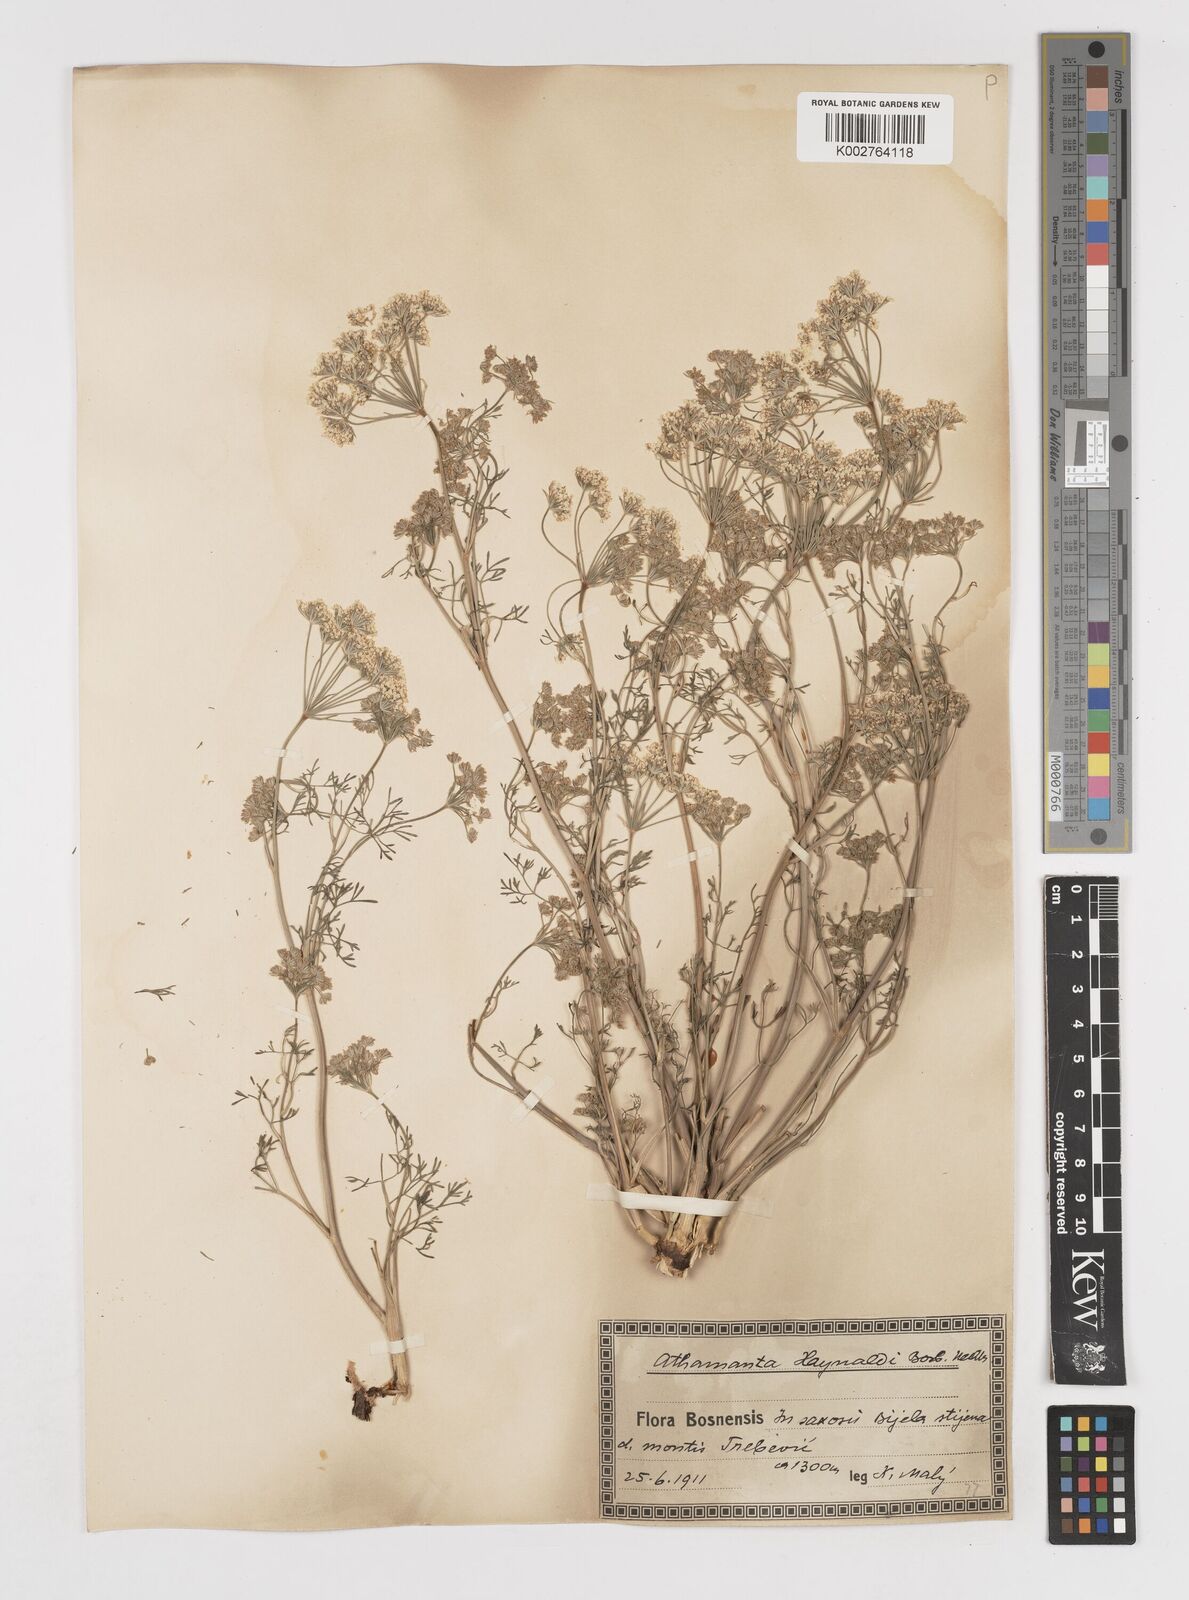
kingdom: Plantae
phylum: Tracheophyta
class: Magnoliopsida
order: Apiales
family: Apiaceae
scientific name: Apiaceae
